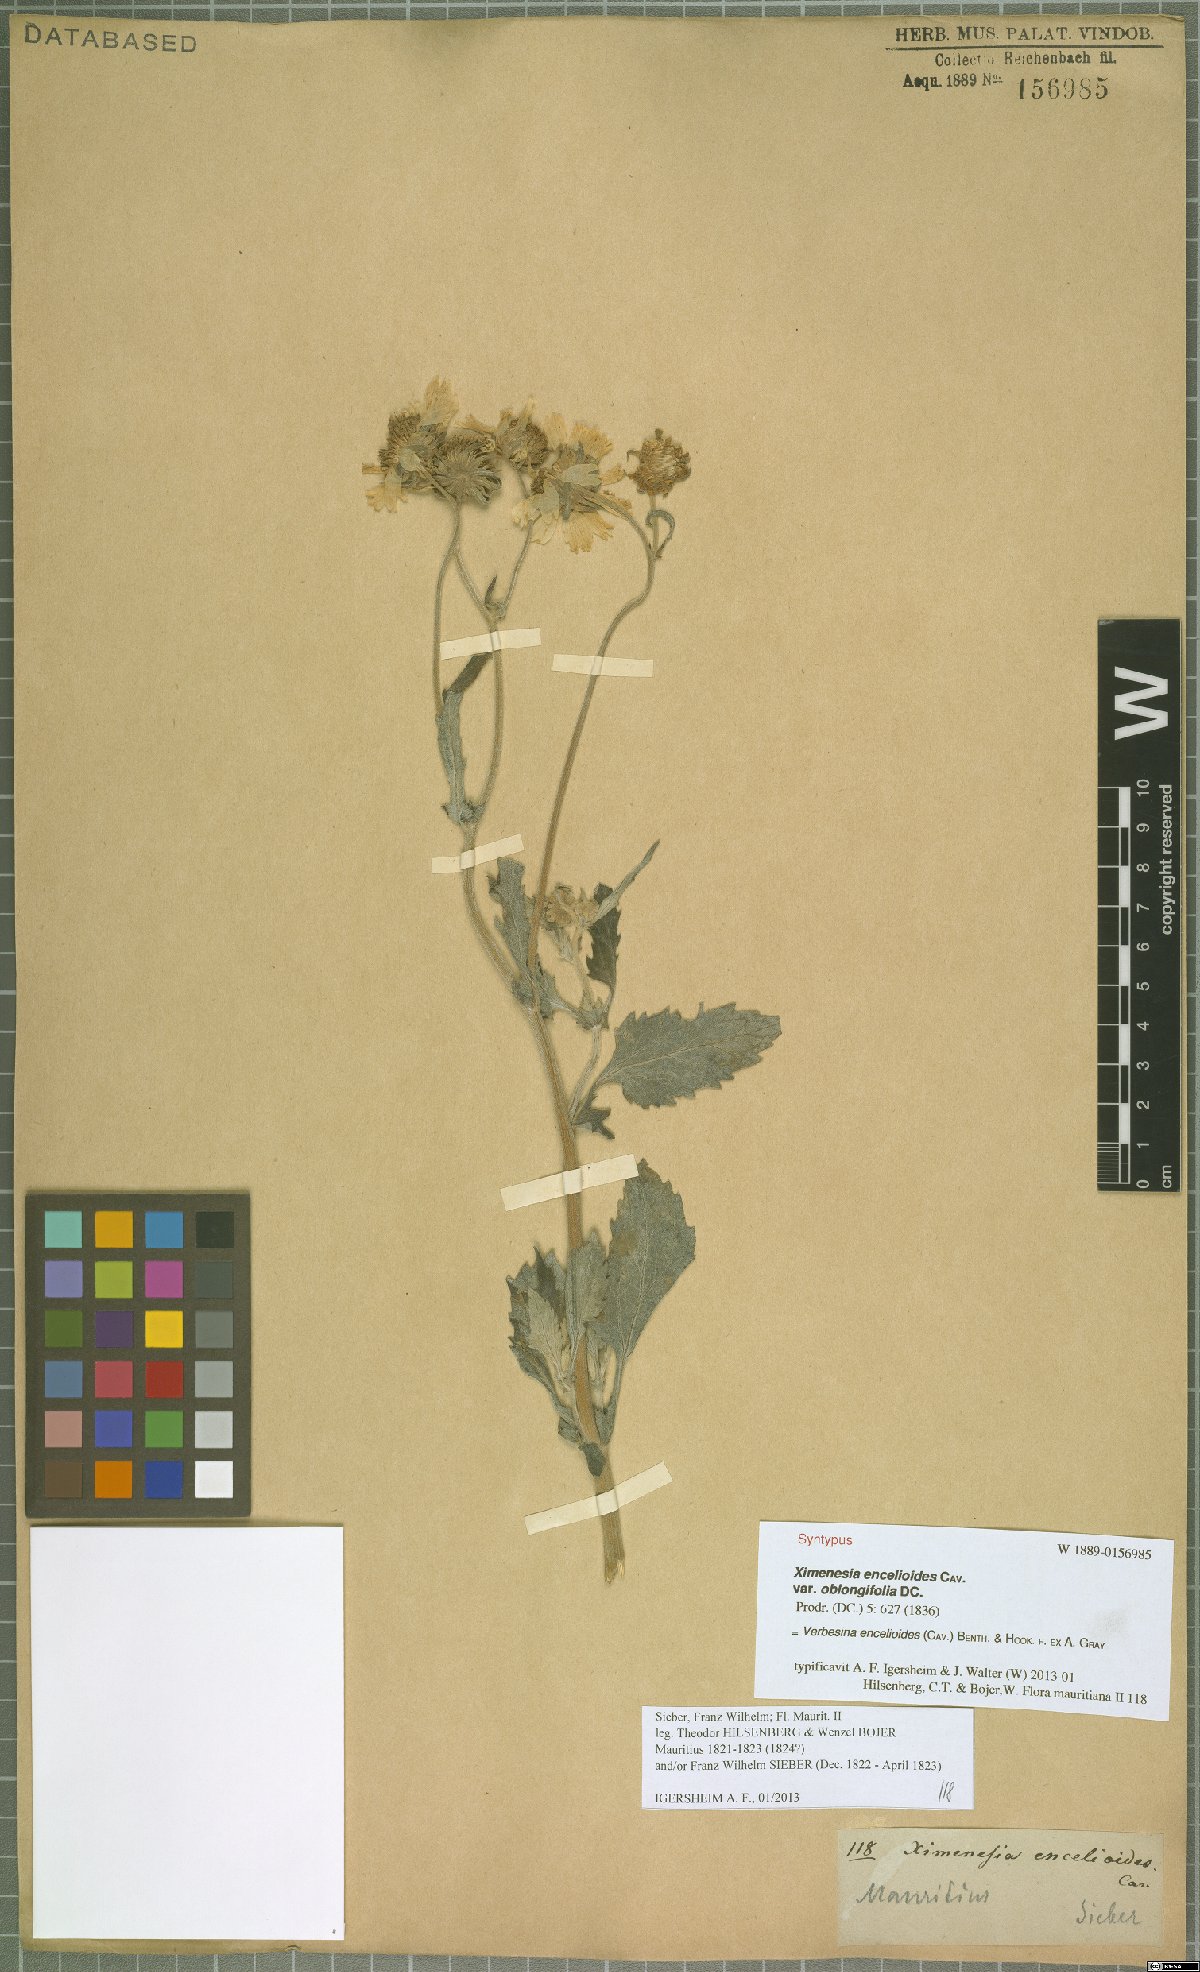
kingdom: Plantae
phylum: Tracheophyta
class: Magnoliopsida
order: Asterales
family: Asteraceae
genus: Verbesina
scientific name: Verbesina encelioides
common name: Golden crownbeard
